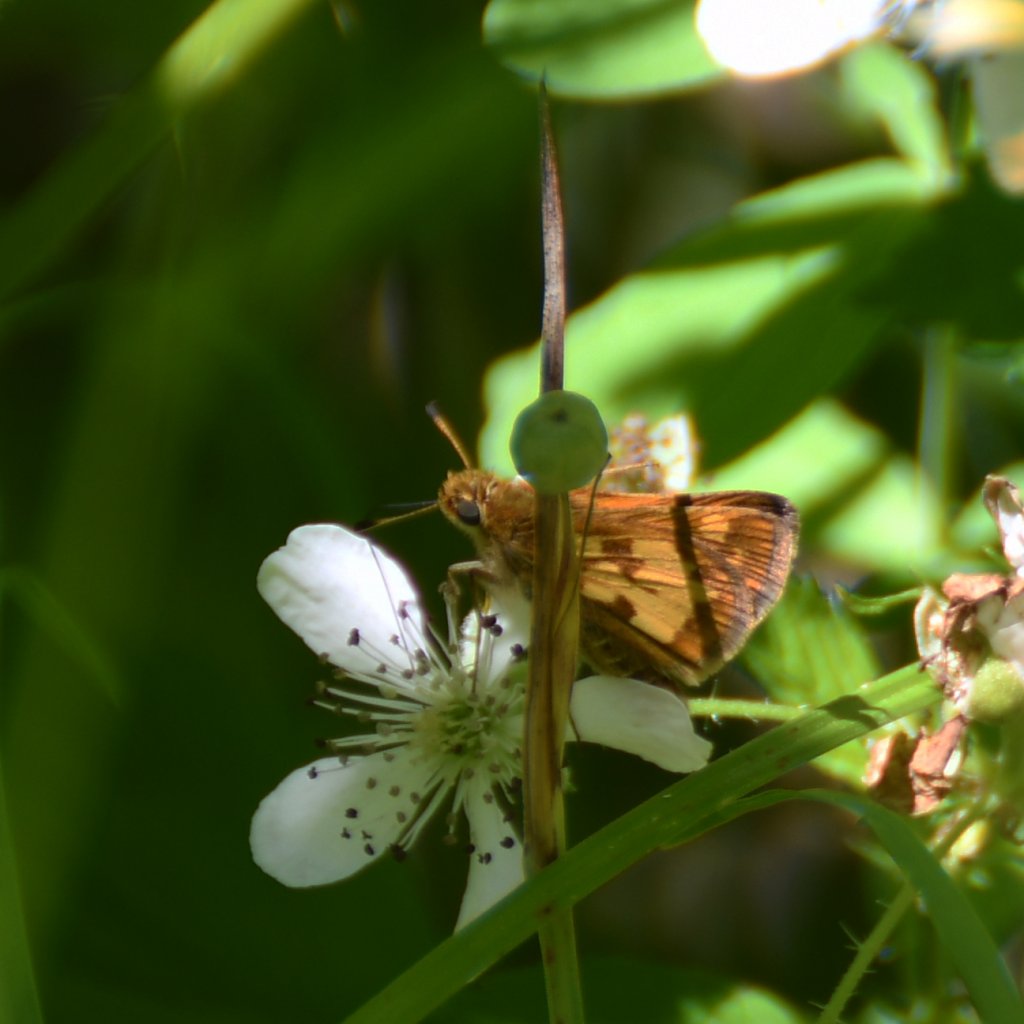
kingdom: Animalia
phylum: Arthropoda
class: Insecta
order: Lepidoptera
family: Hesperiidae
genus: Polites
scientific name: Polites coras
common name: Peck's Skipper
